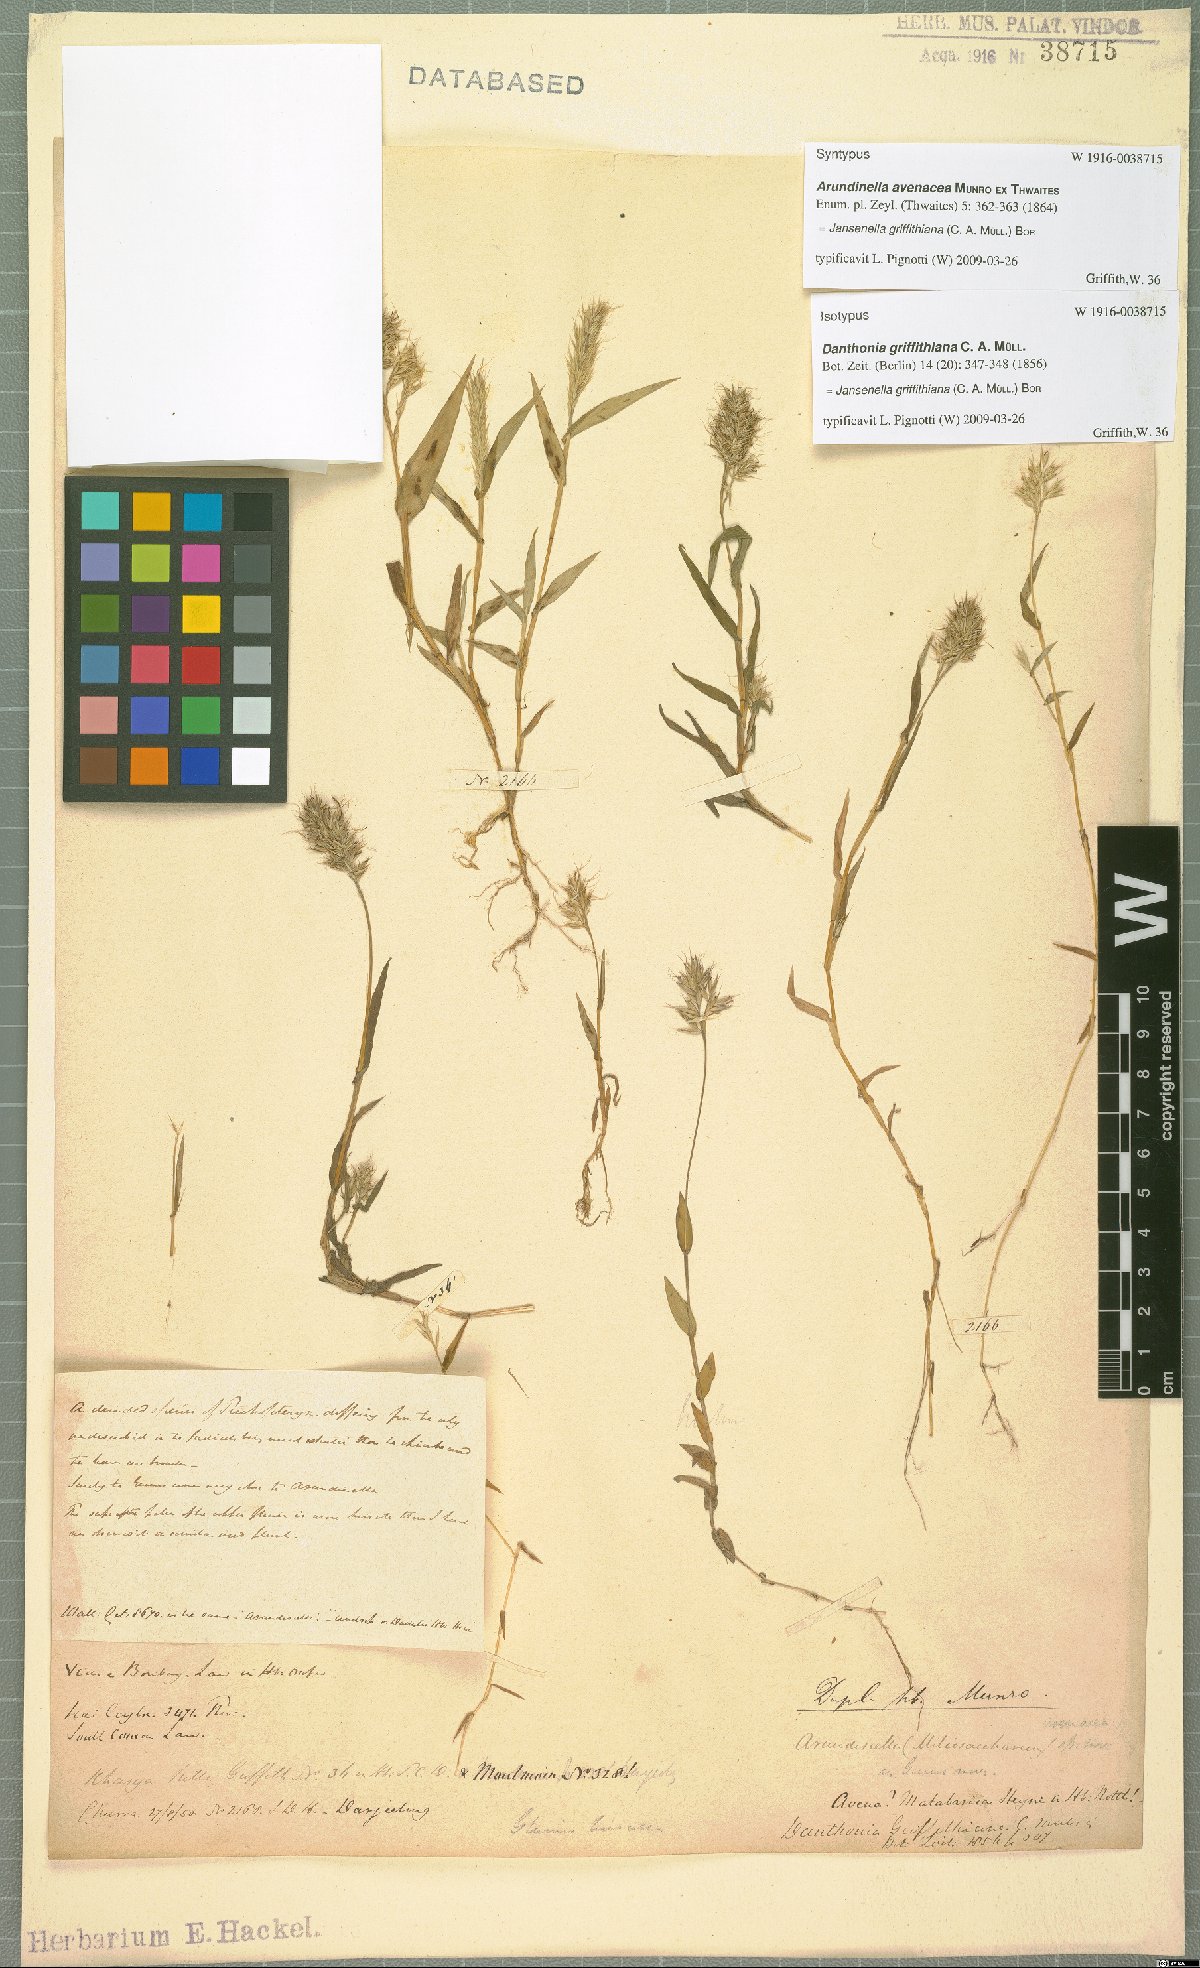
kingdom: Plantae
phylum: Tracheophyta
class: Liliopsida
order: Poales
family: Poaceae
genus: Jansenella
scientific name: Jansenella griffithiana
